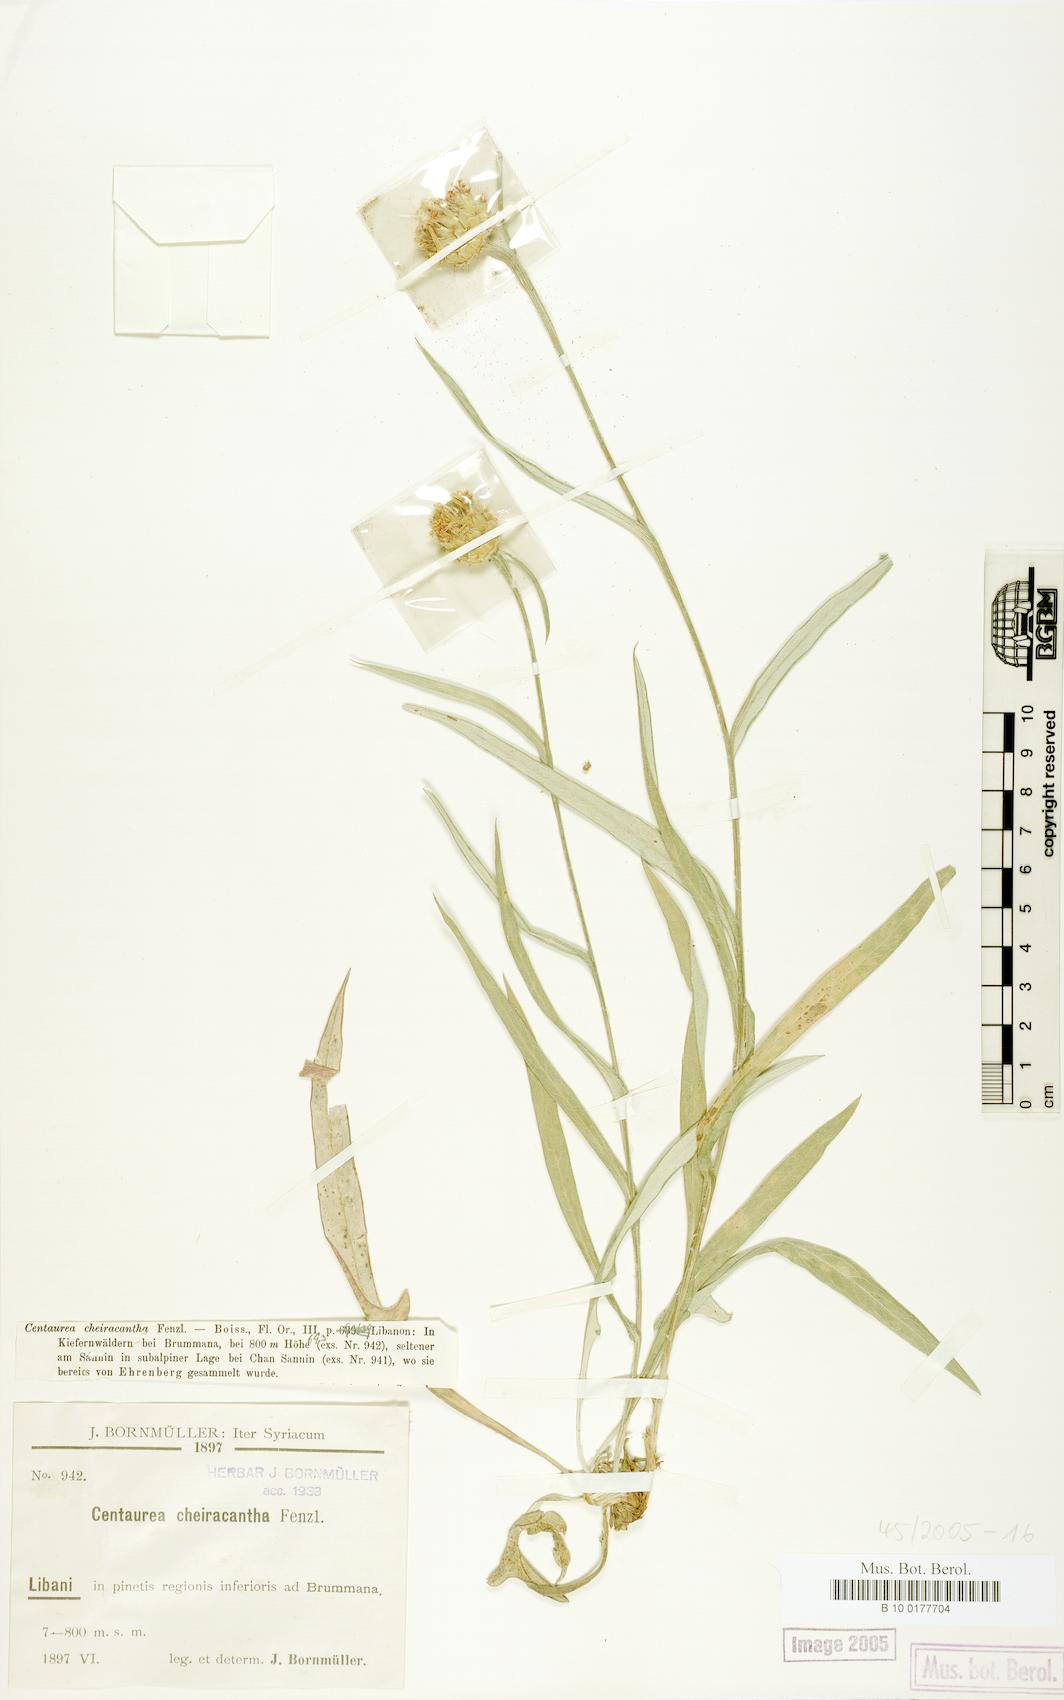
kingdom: Plantae
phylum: Tracheophyta
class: Magnoliopsida
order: Asterales
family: Asteraceae
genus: Centaurea
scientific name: Centaurea cheirolopha
